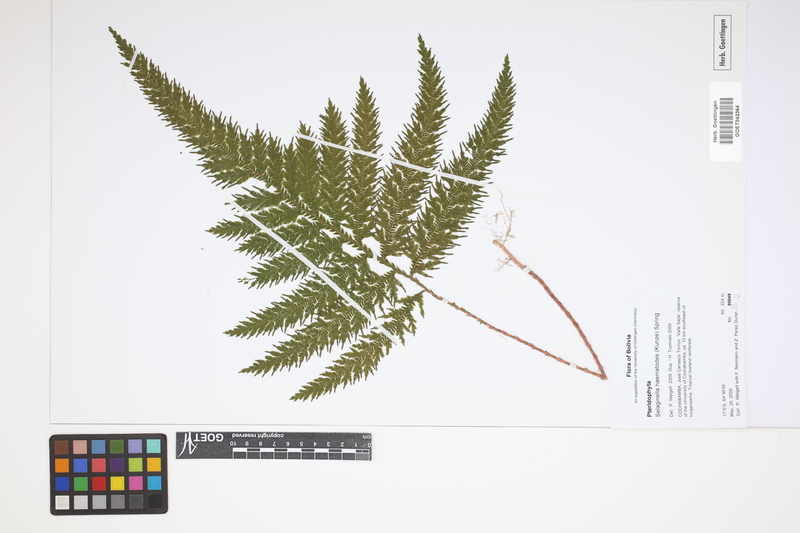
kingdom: Plantae
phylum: Tracheophyta
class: Lycopodiopsida
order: Selaginellales
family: Selaginellaceae
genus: Selaginella
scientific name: Selaginella haematodes
